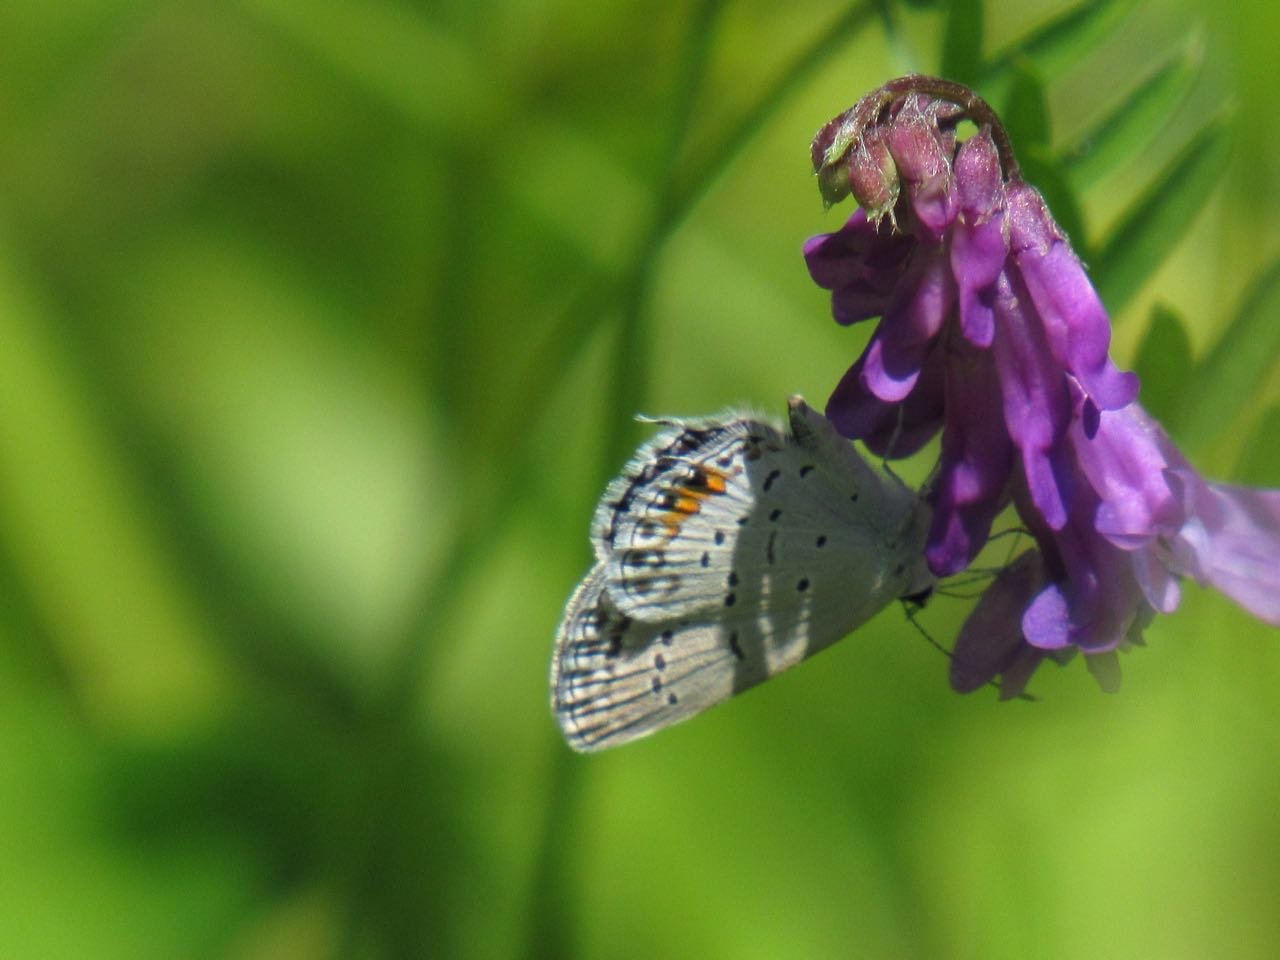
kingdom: Animalia
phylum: Arthropoda
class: Insecta
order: Lepidoptera
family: Lycaenidae
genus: Elkalyce
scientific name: Elkalyce comyntas
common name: Eastern Tailed-Blue
